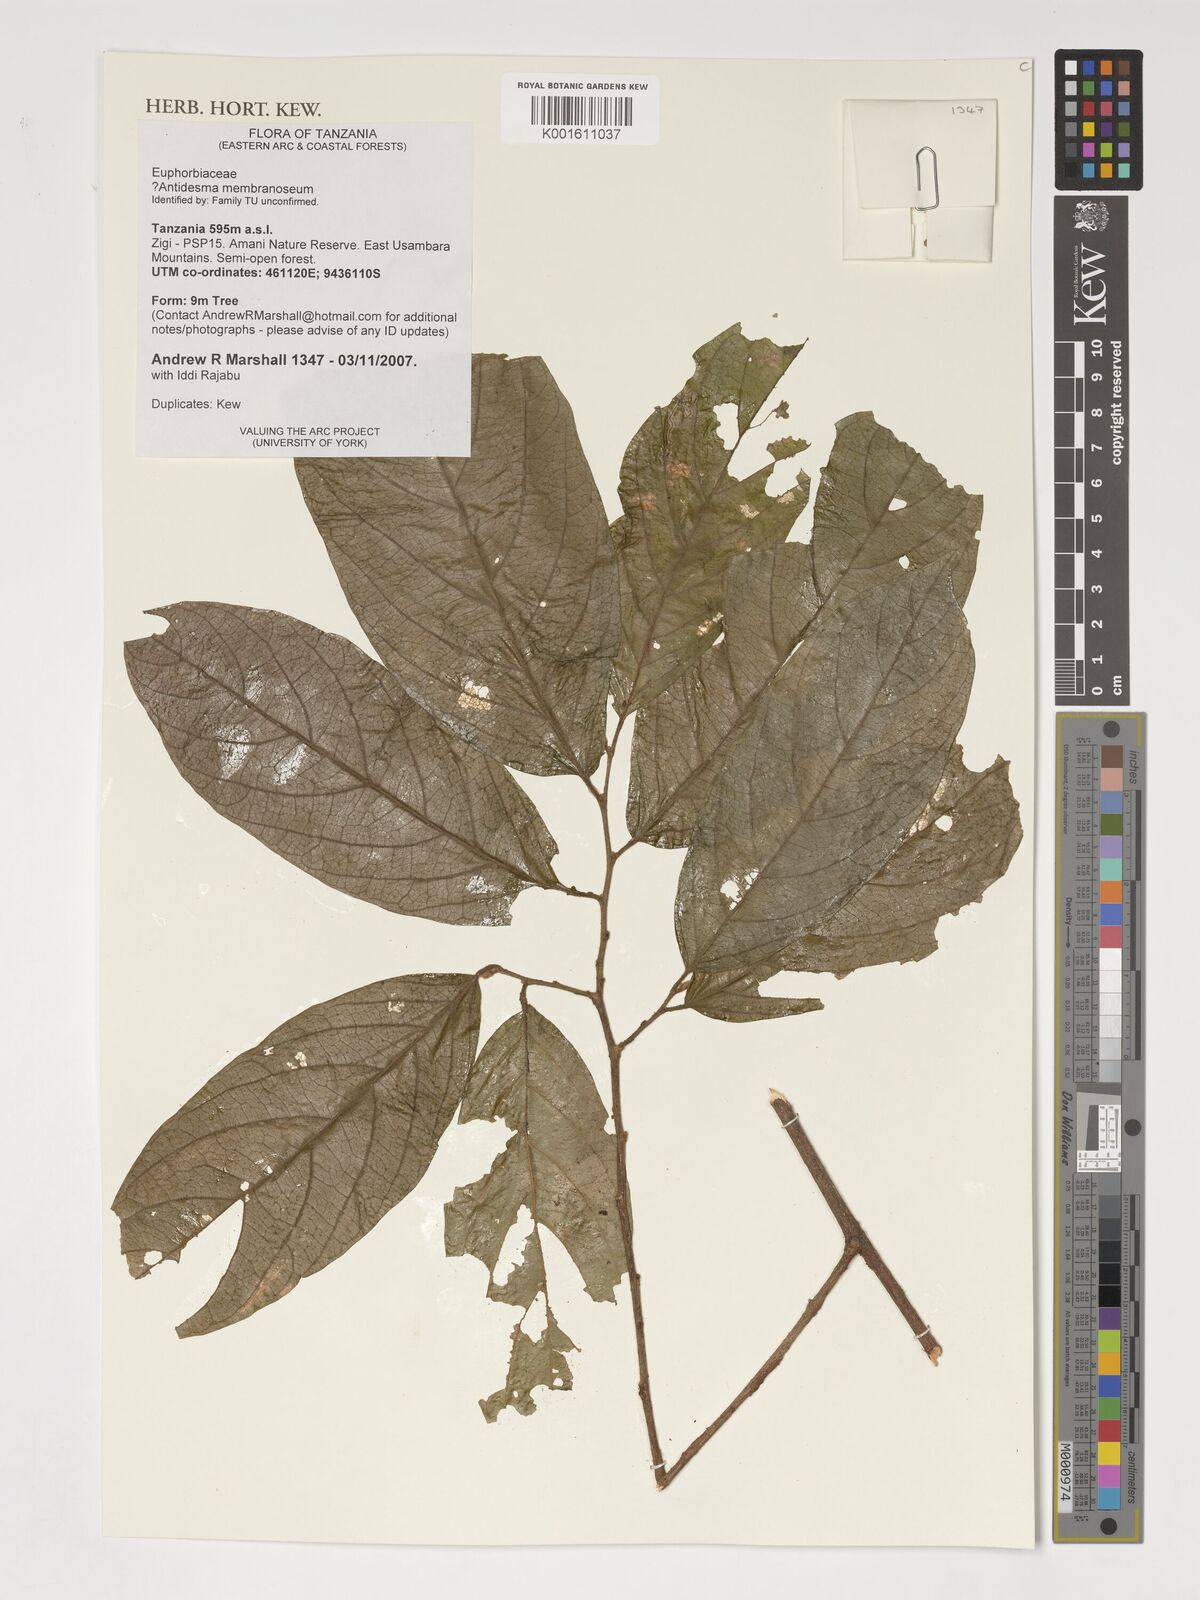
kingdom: Plantae
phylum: Tracheophyta
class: Magnoliopsida
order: Malpighiales
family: Phyllanthaceae
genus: Antidesma
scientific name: Antidesma membranaceum
